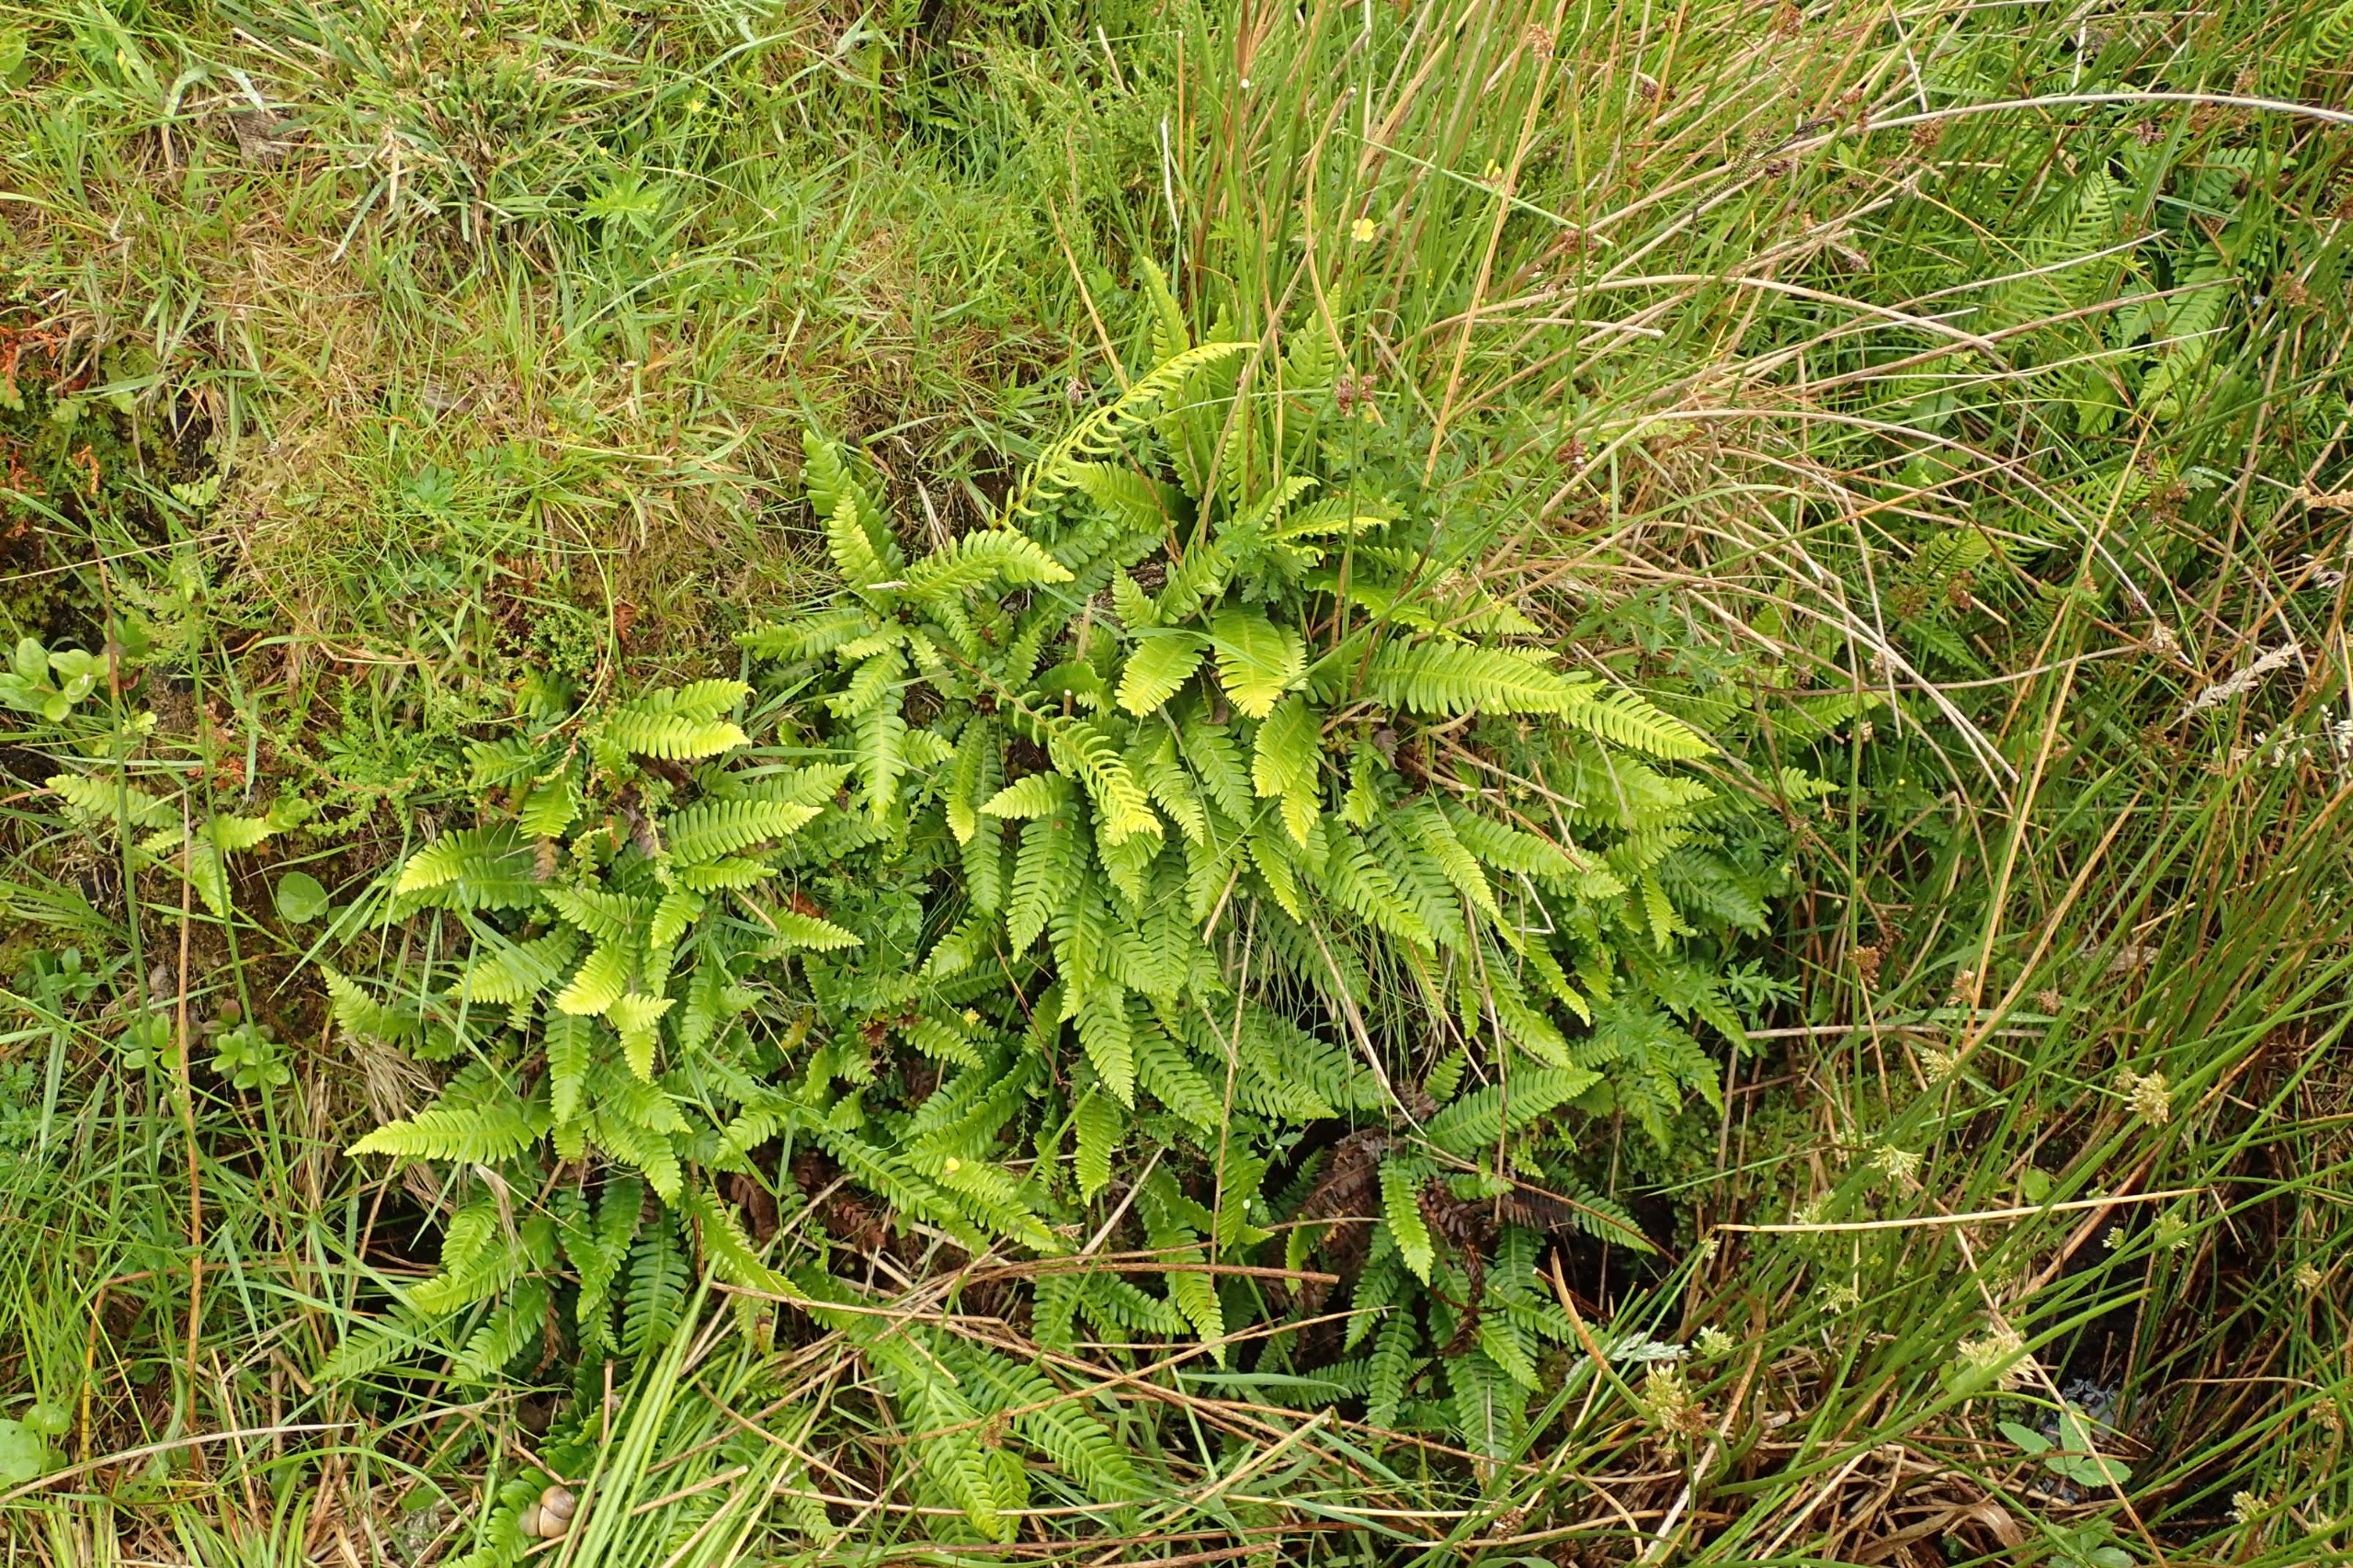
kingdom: Plantae
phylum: Tracheophyta
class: Polypodiopsida
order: Polypodiales
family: Blechnaceae
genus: Struthiopteris
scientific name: Struthiopteris spicant
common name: Kambregne
